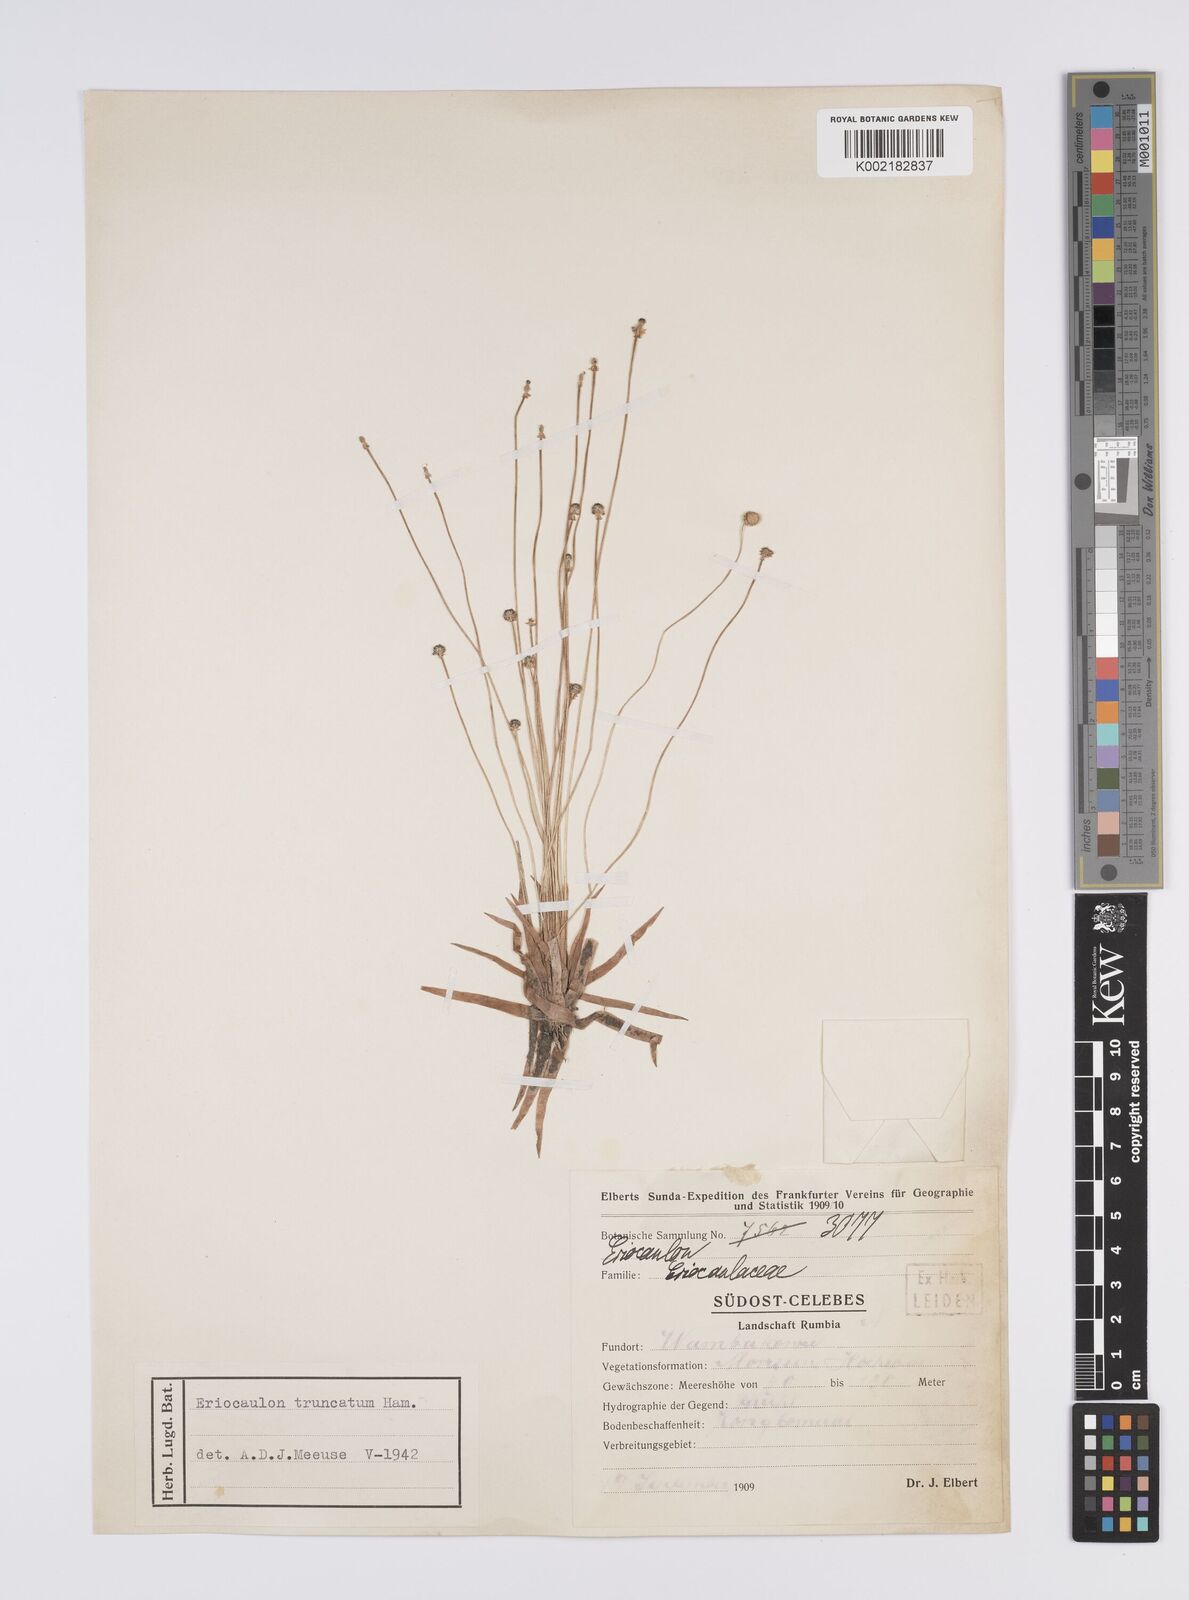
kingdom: Plantae
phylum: Tracheophyta
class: Liliopsida
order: Poales
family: Eriocaulaceae
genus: Eriocaulon
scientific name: Eriocaulon truncatum
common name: Short pipe-wort
